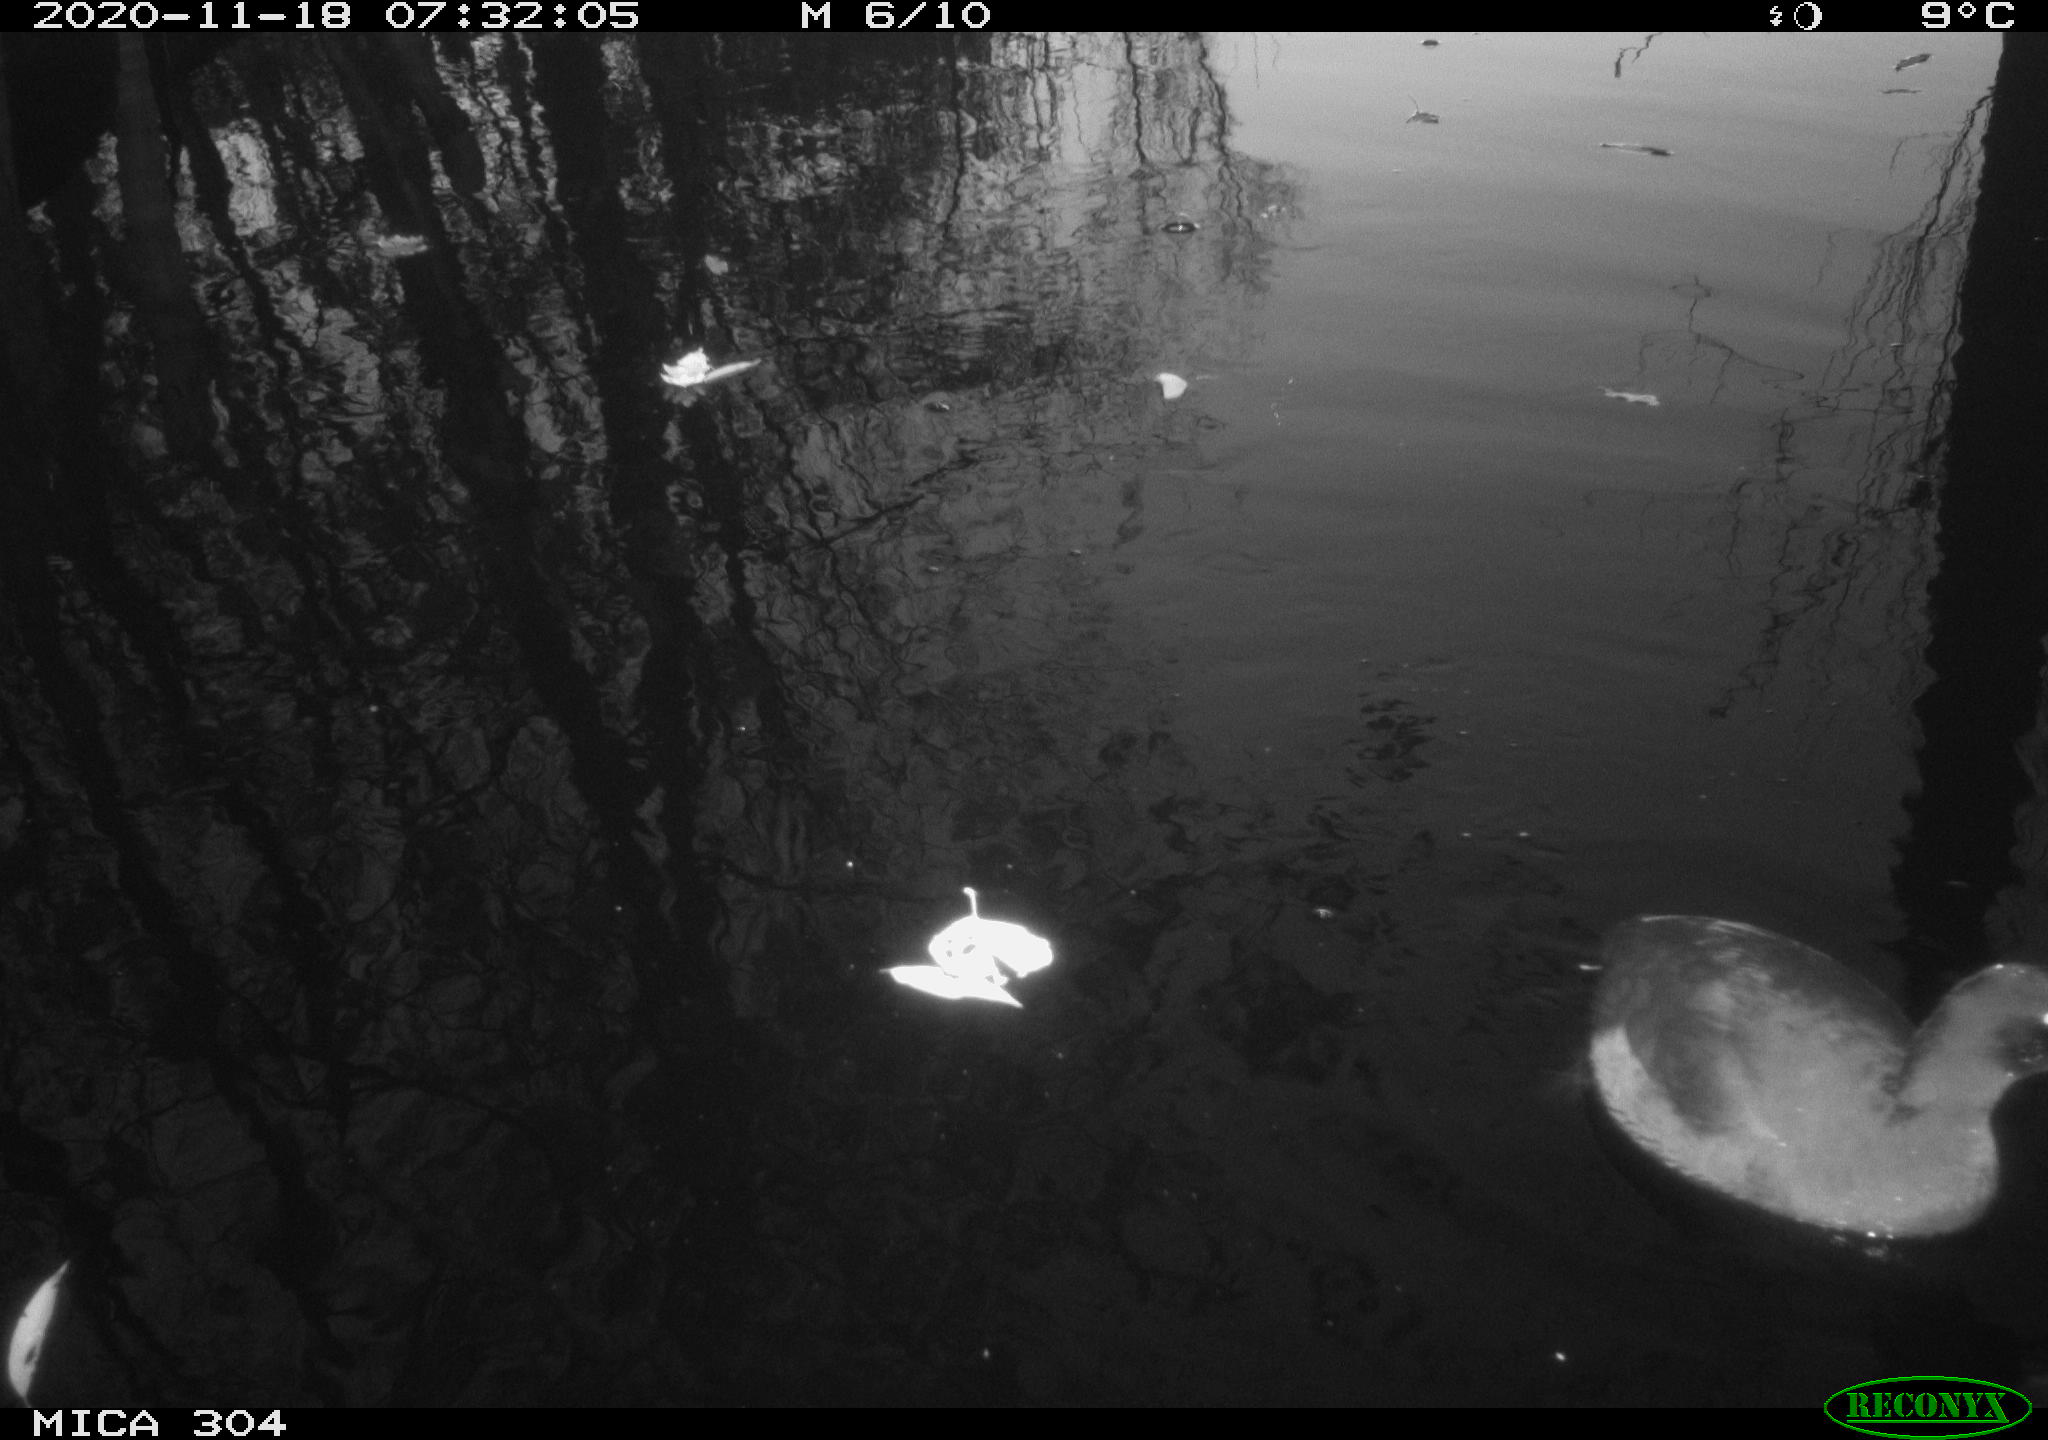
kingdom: Animalia
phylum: Chordata
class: Aves
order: Gruiformes
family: Rallidae
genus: Fulica
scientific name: Fulica atra
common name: Eurasian coot
